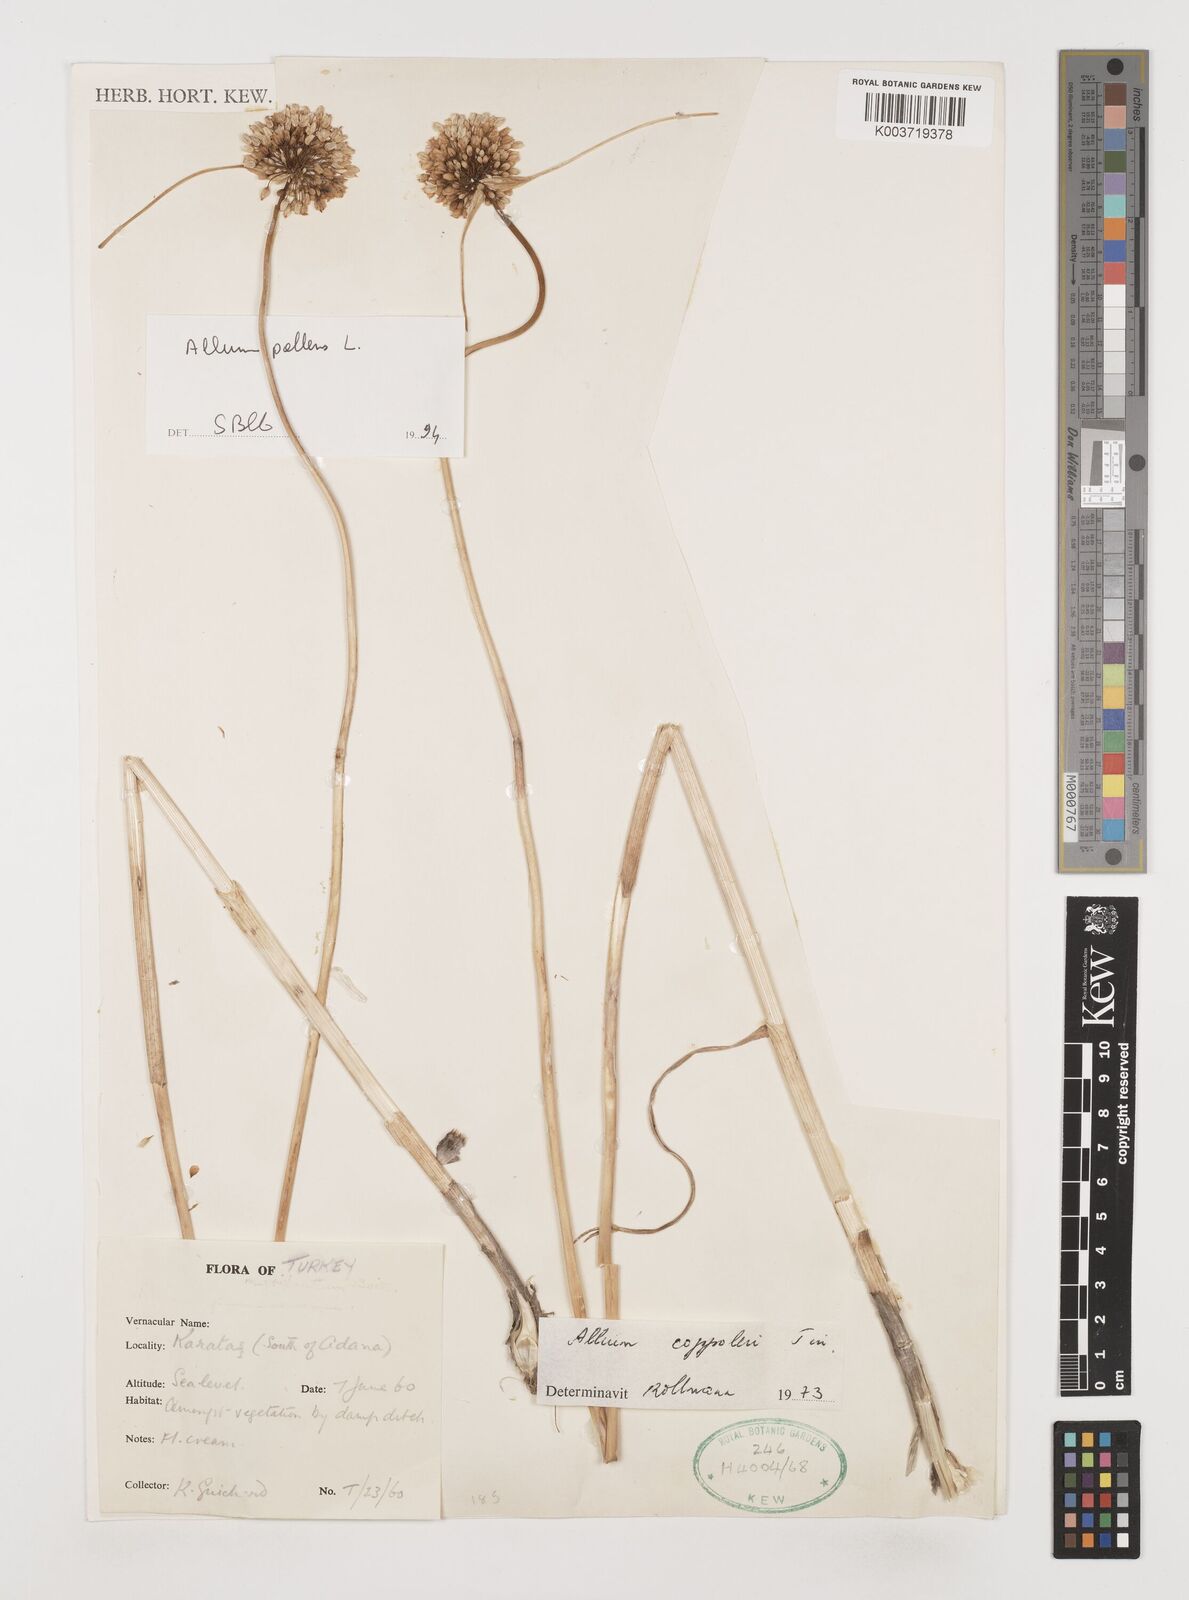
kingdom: Plantae
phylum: Tracheophyta
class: Liliopsida
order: Asparagales
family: Amaryllidaceae
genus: Allium
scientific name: Allium coppoleri
